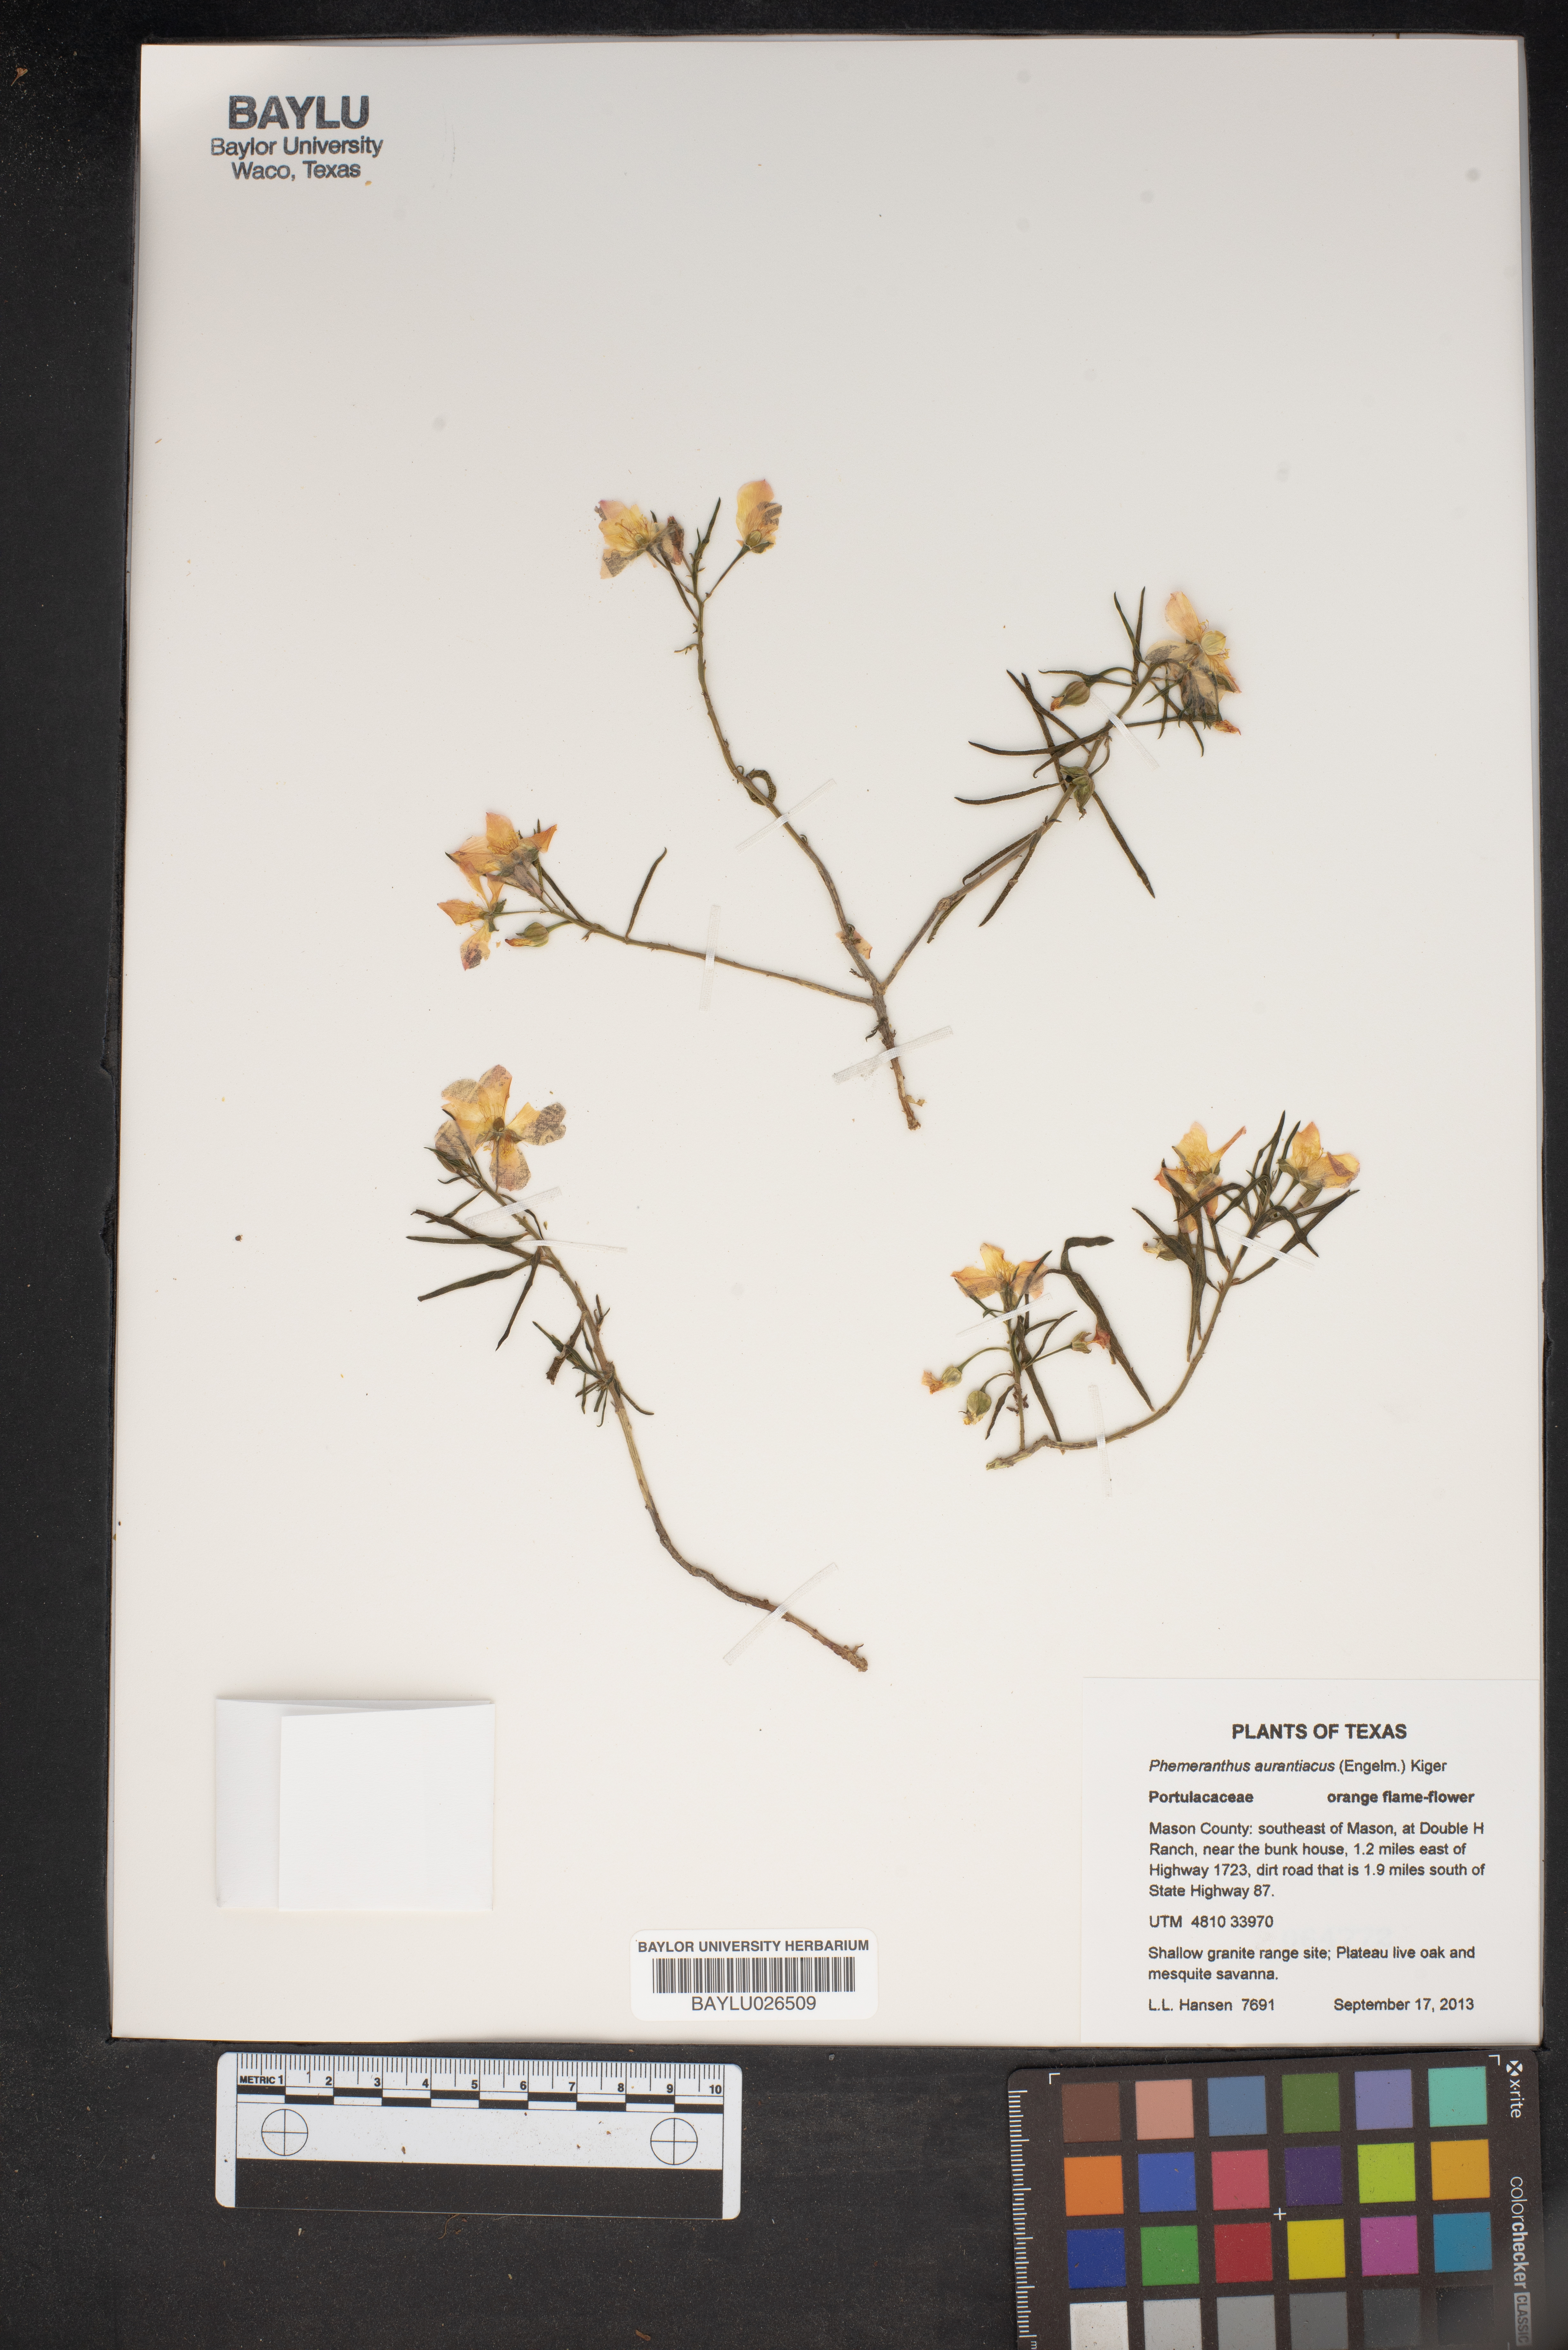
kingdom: Plantae
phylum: Tracheophyta
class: Magnoliopsida
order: Caryophyllales
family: Montiaceae
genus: Phemeranthus
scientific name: Phemeranthus aurantiacus
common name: Orange fameflower
